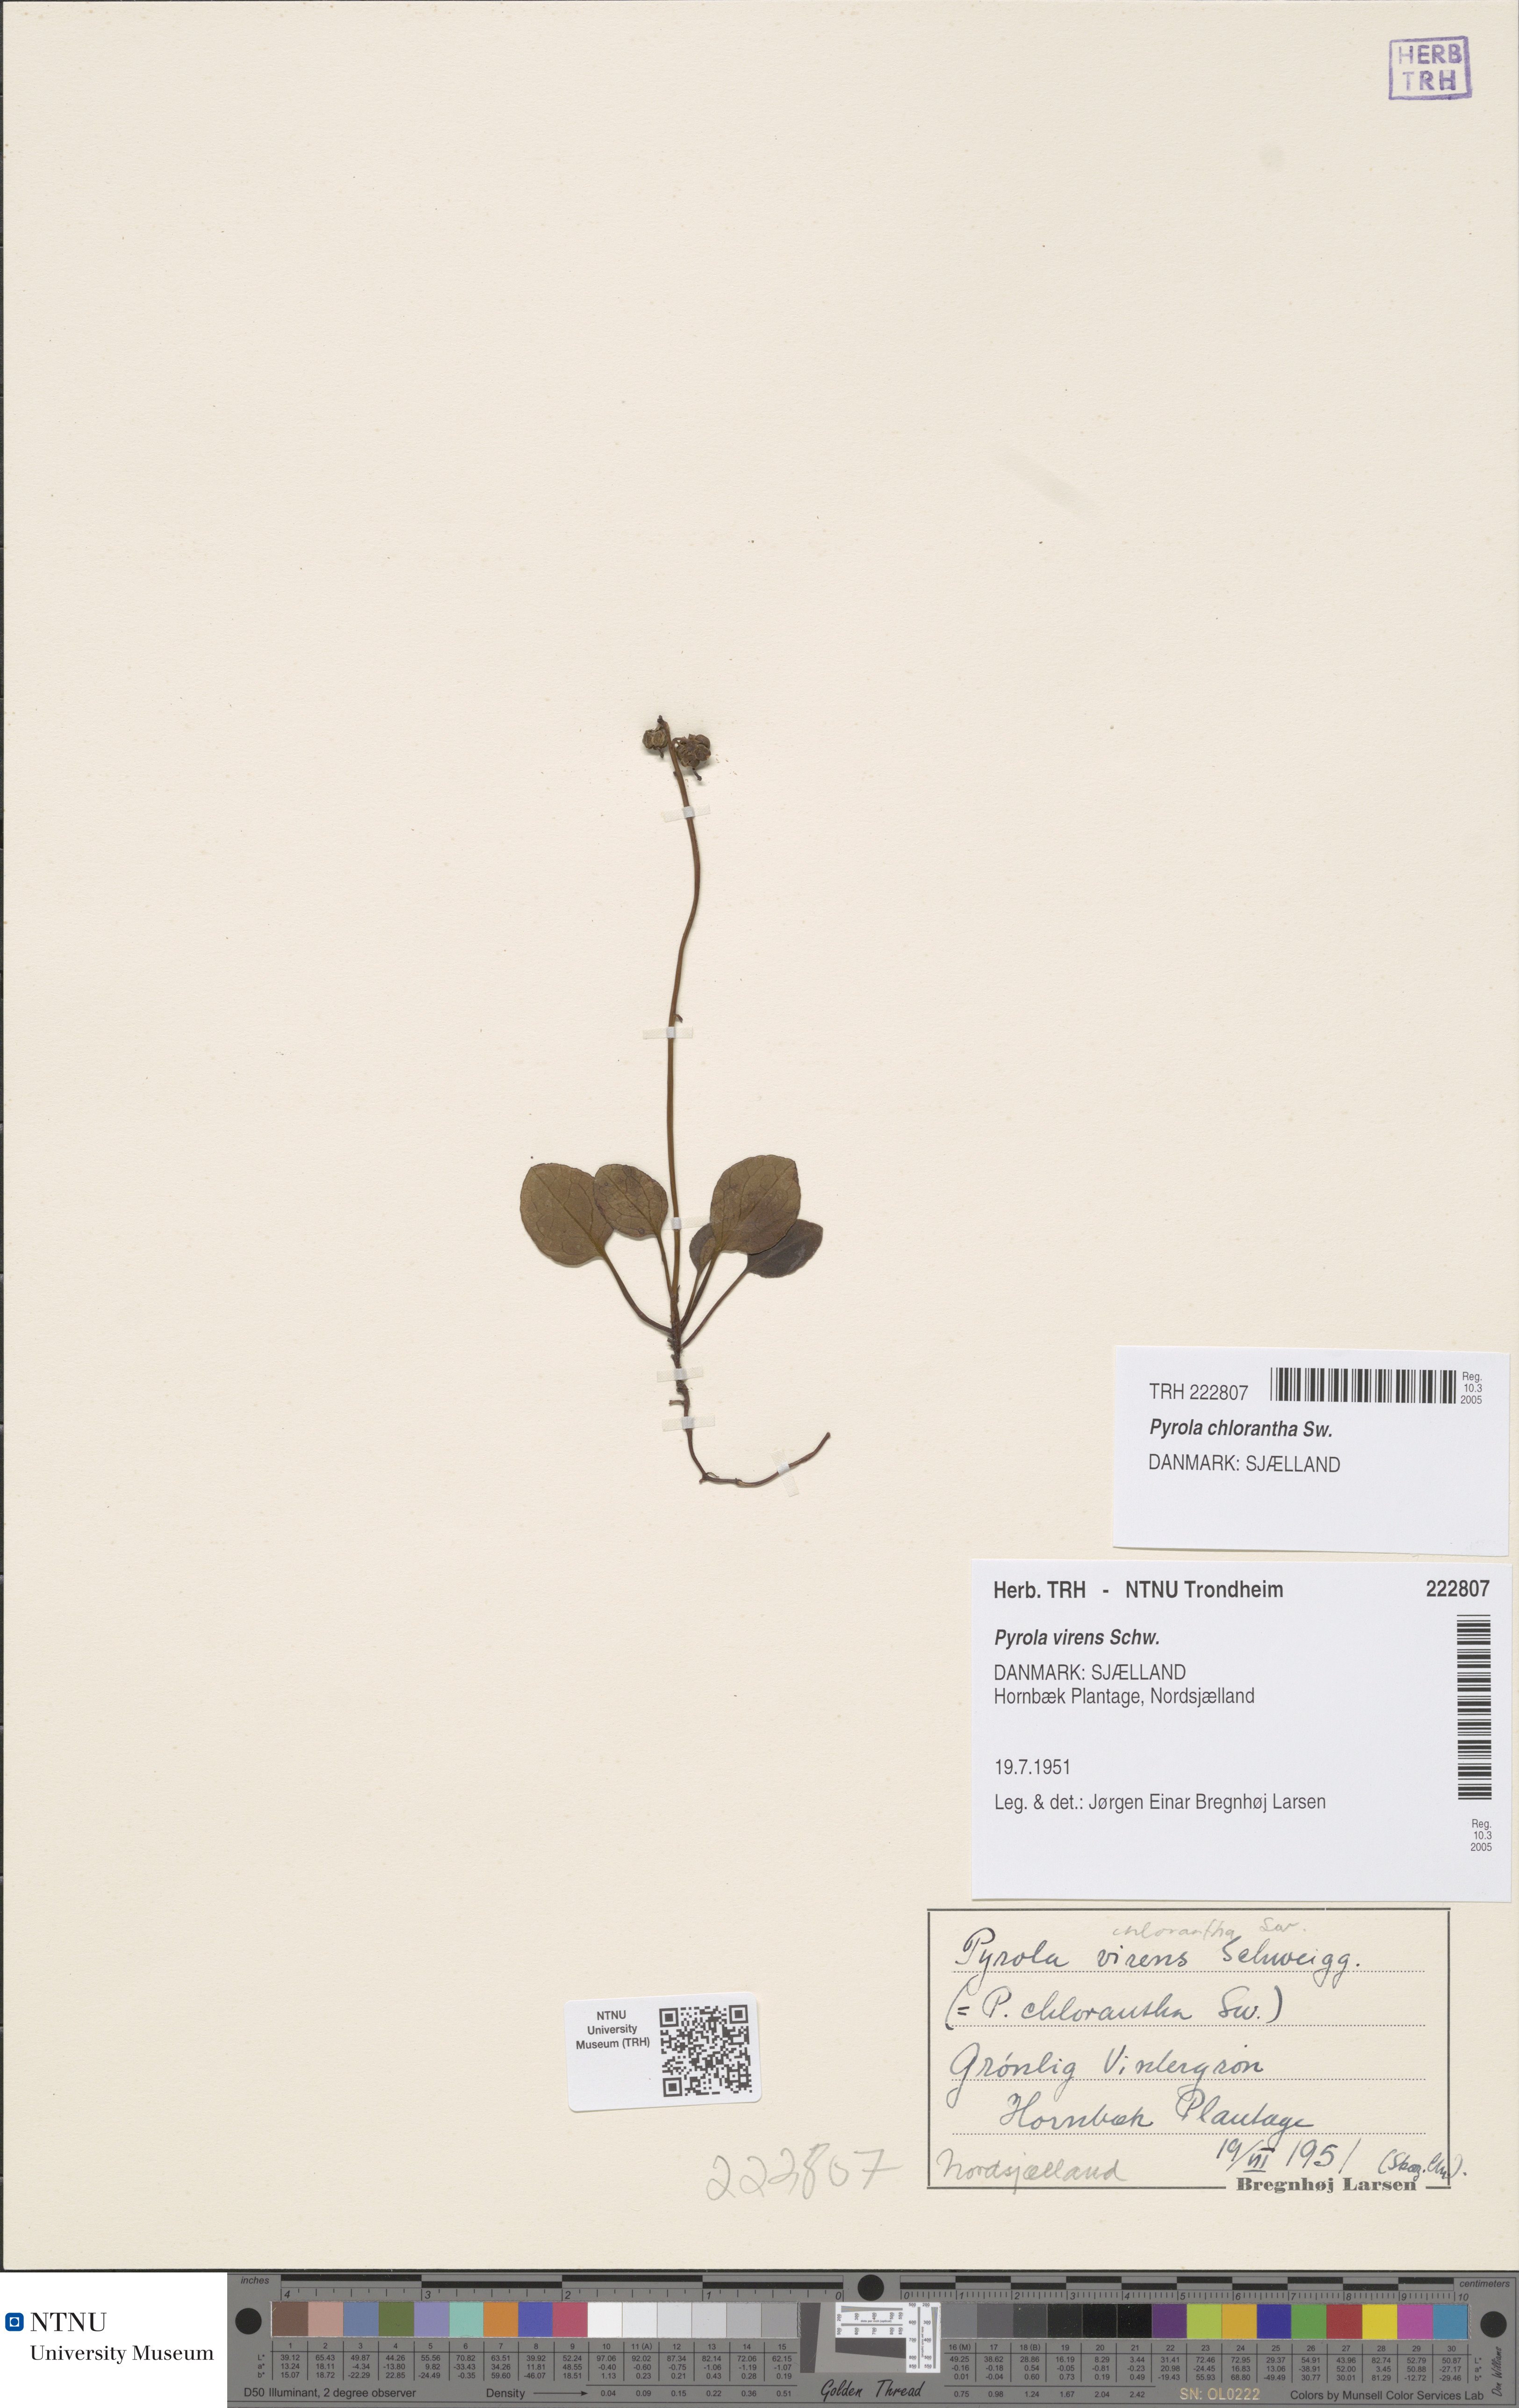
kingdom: Plantae
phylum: Tracheophyta
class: Magnoliopsida
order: Ericales
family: Ericaceae
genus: Pyrola
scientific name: Pyrola chlorantha
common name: Green wintergreen
